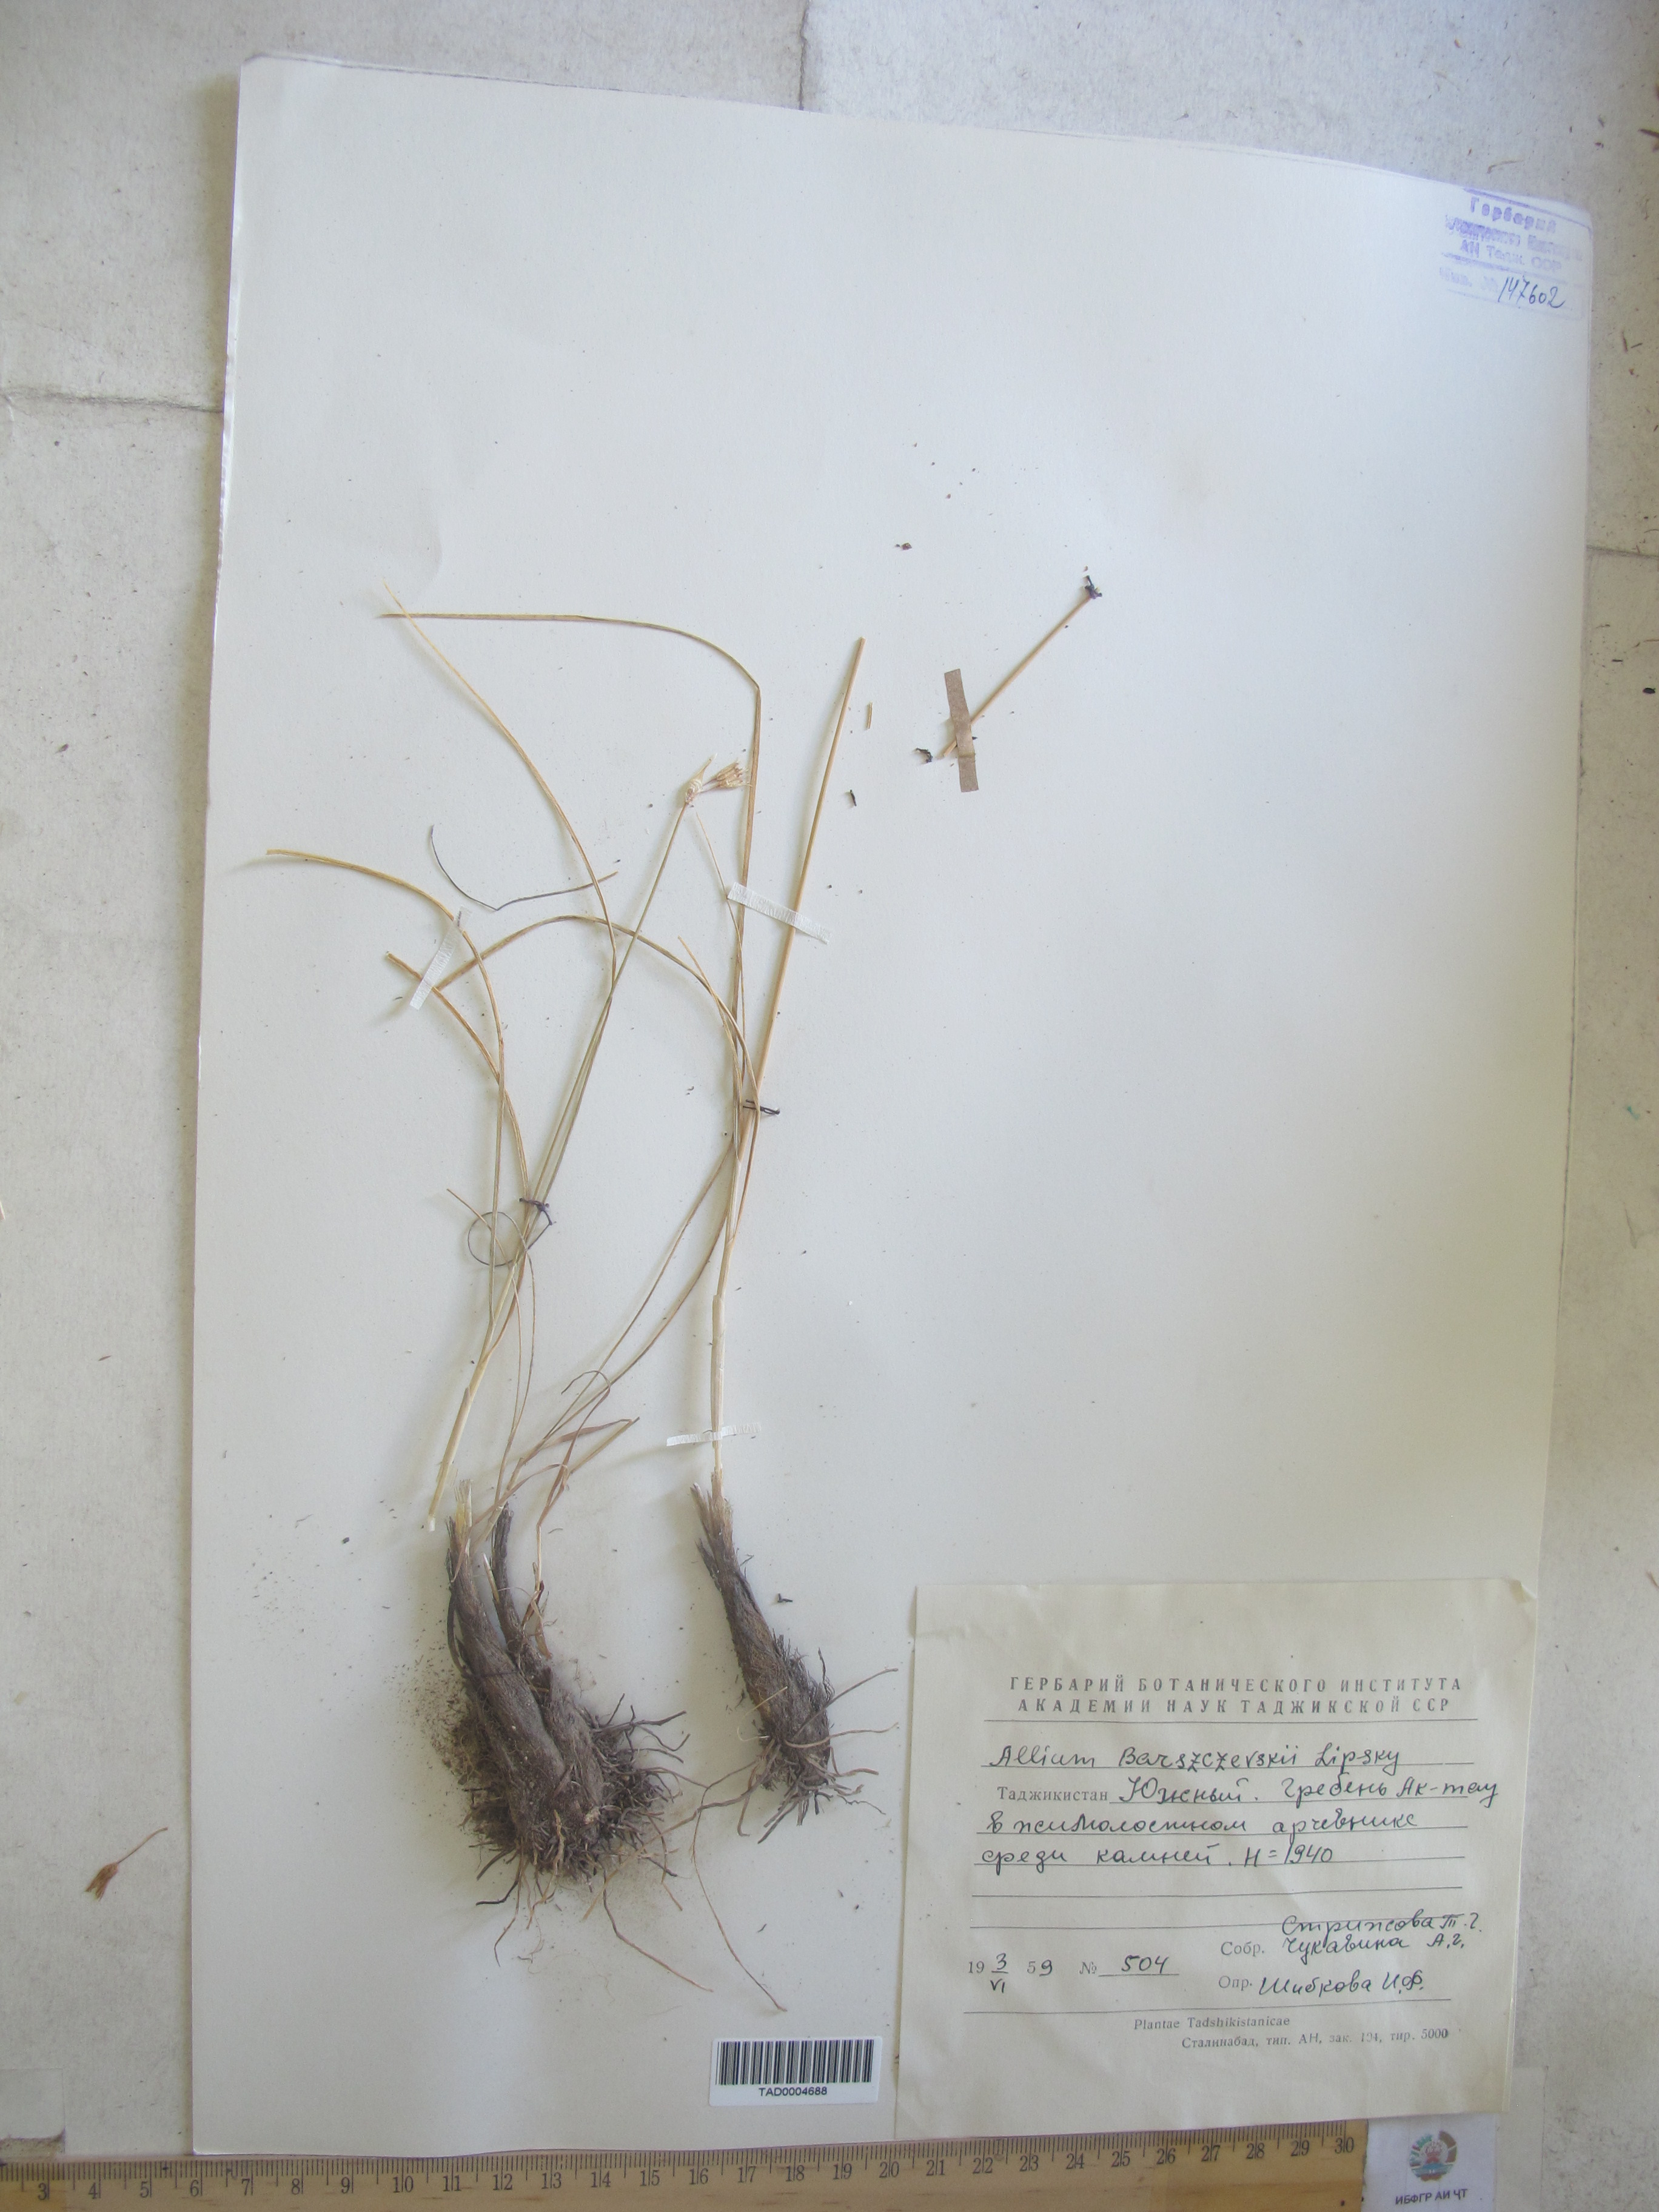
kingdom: Plantae
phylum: Tracheophyta
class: Liliopsida
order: Asparagales
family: Amaryllidaceae
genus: Allium
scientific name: Allium barsczewskii
